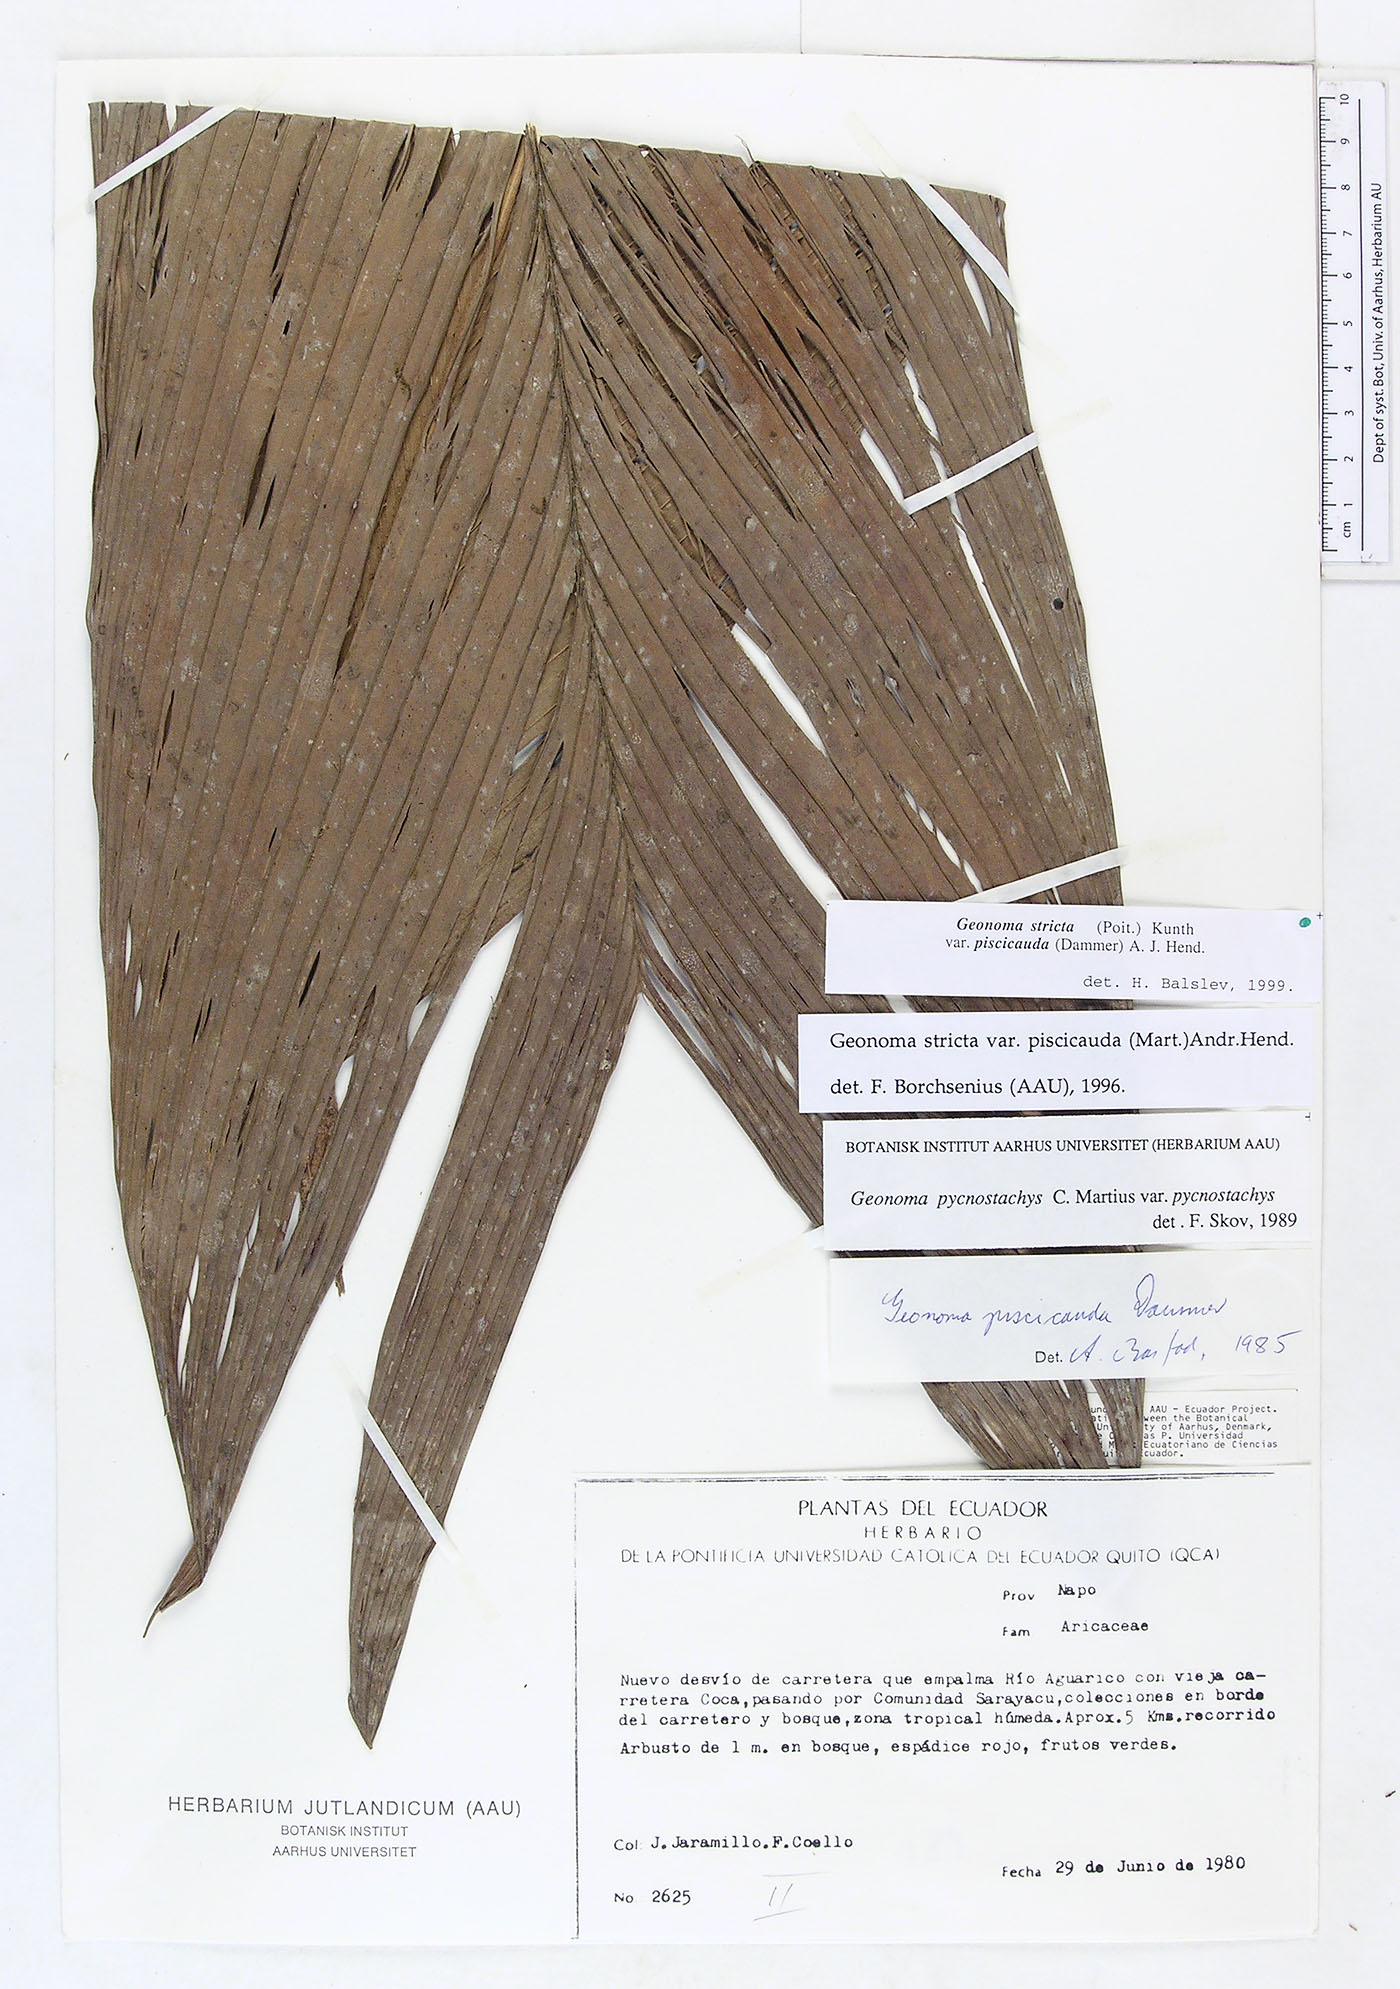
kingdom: Plantae
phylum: Tracheophyta
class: Liliopsida
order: Arecales
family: Arecaceae
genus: Geonoma
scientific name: Geonoma stricta
